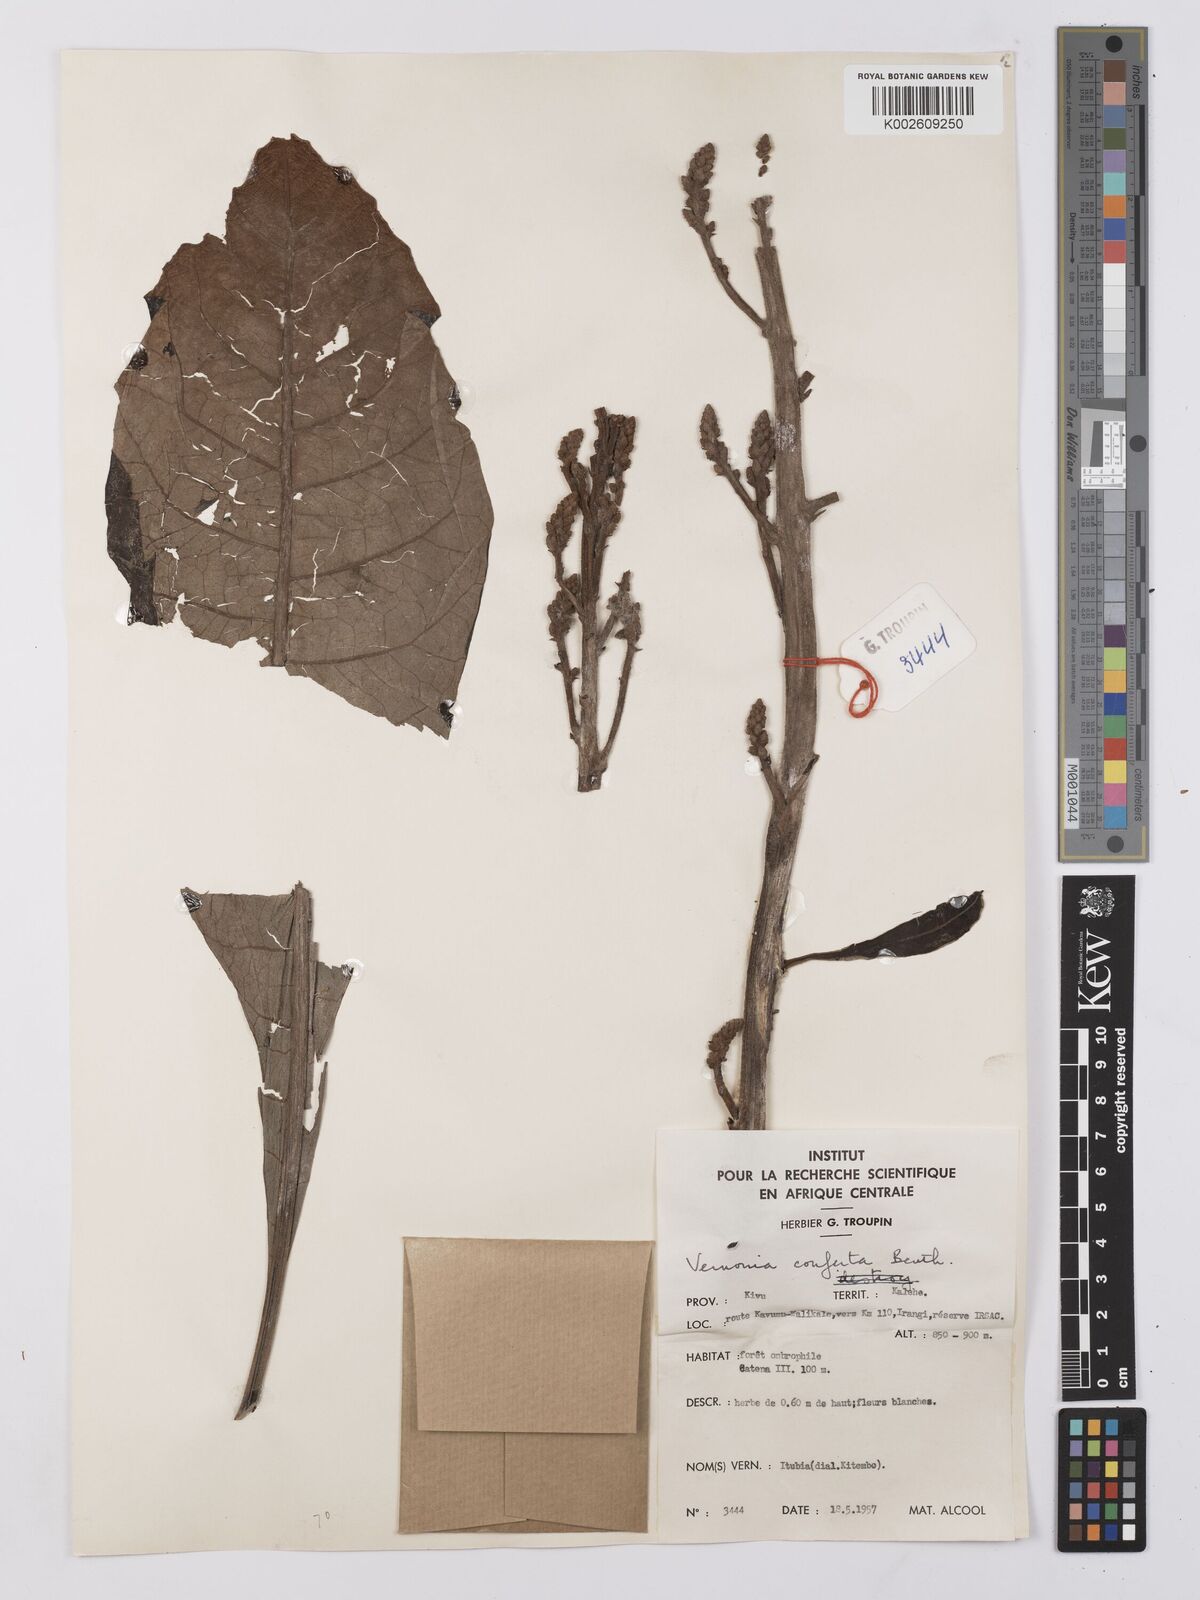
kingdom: Plantae
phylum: Tracheophyta
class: Magnoliopsida
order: Asterales
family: Asteraceae
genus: Monosis
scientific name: Monosis conferta
